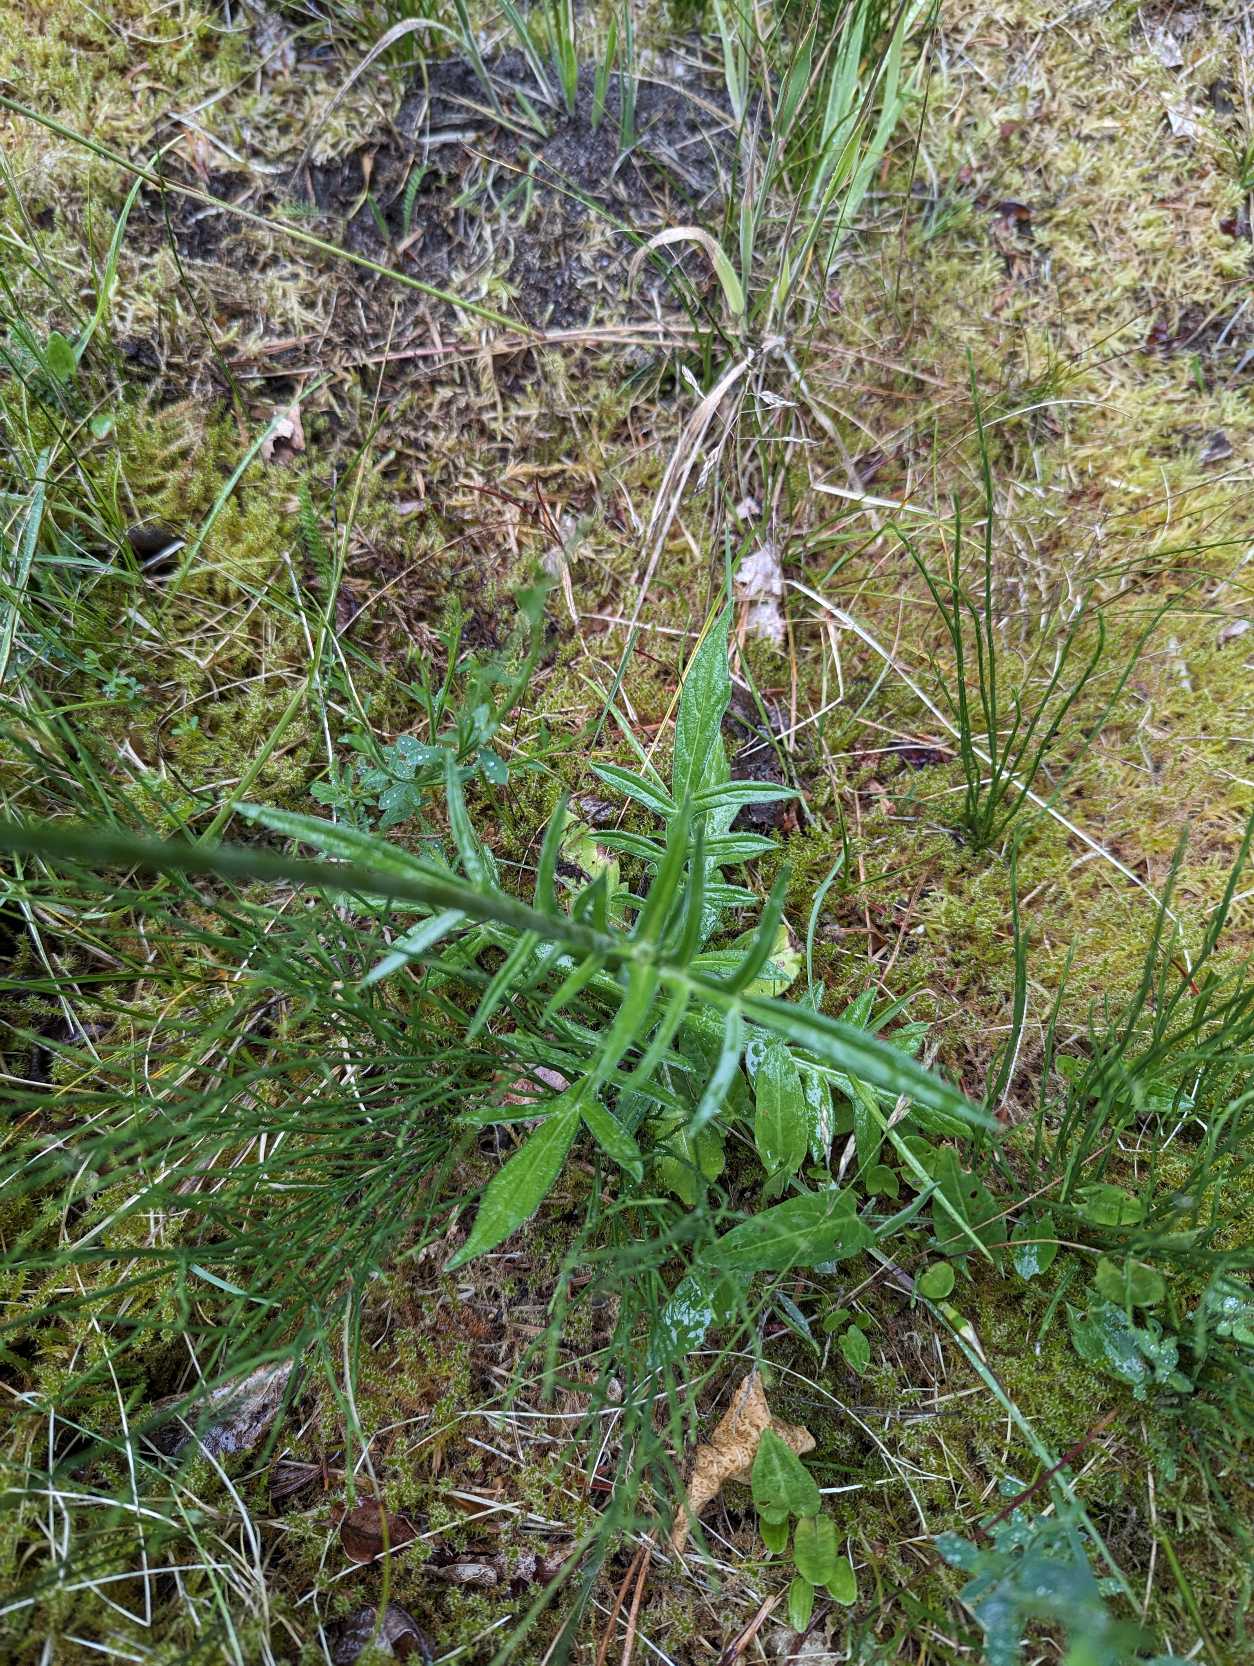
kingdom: Plantae
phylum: Tracheophyta
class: Magnoliopsida
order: Dipsacales
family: Caprifoliaceae
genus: Knautia
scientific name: Knautia arvensis
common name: Blåhat
